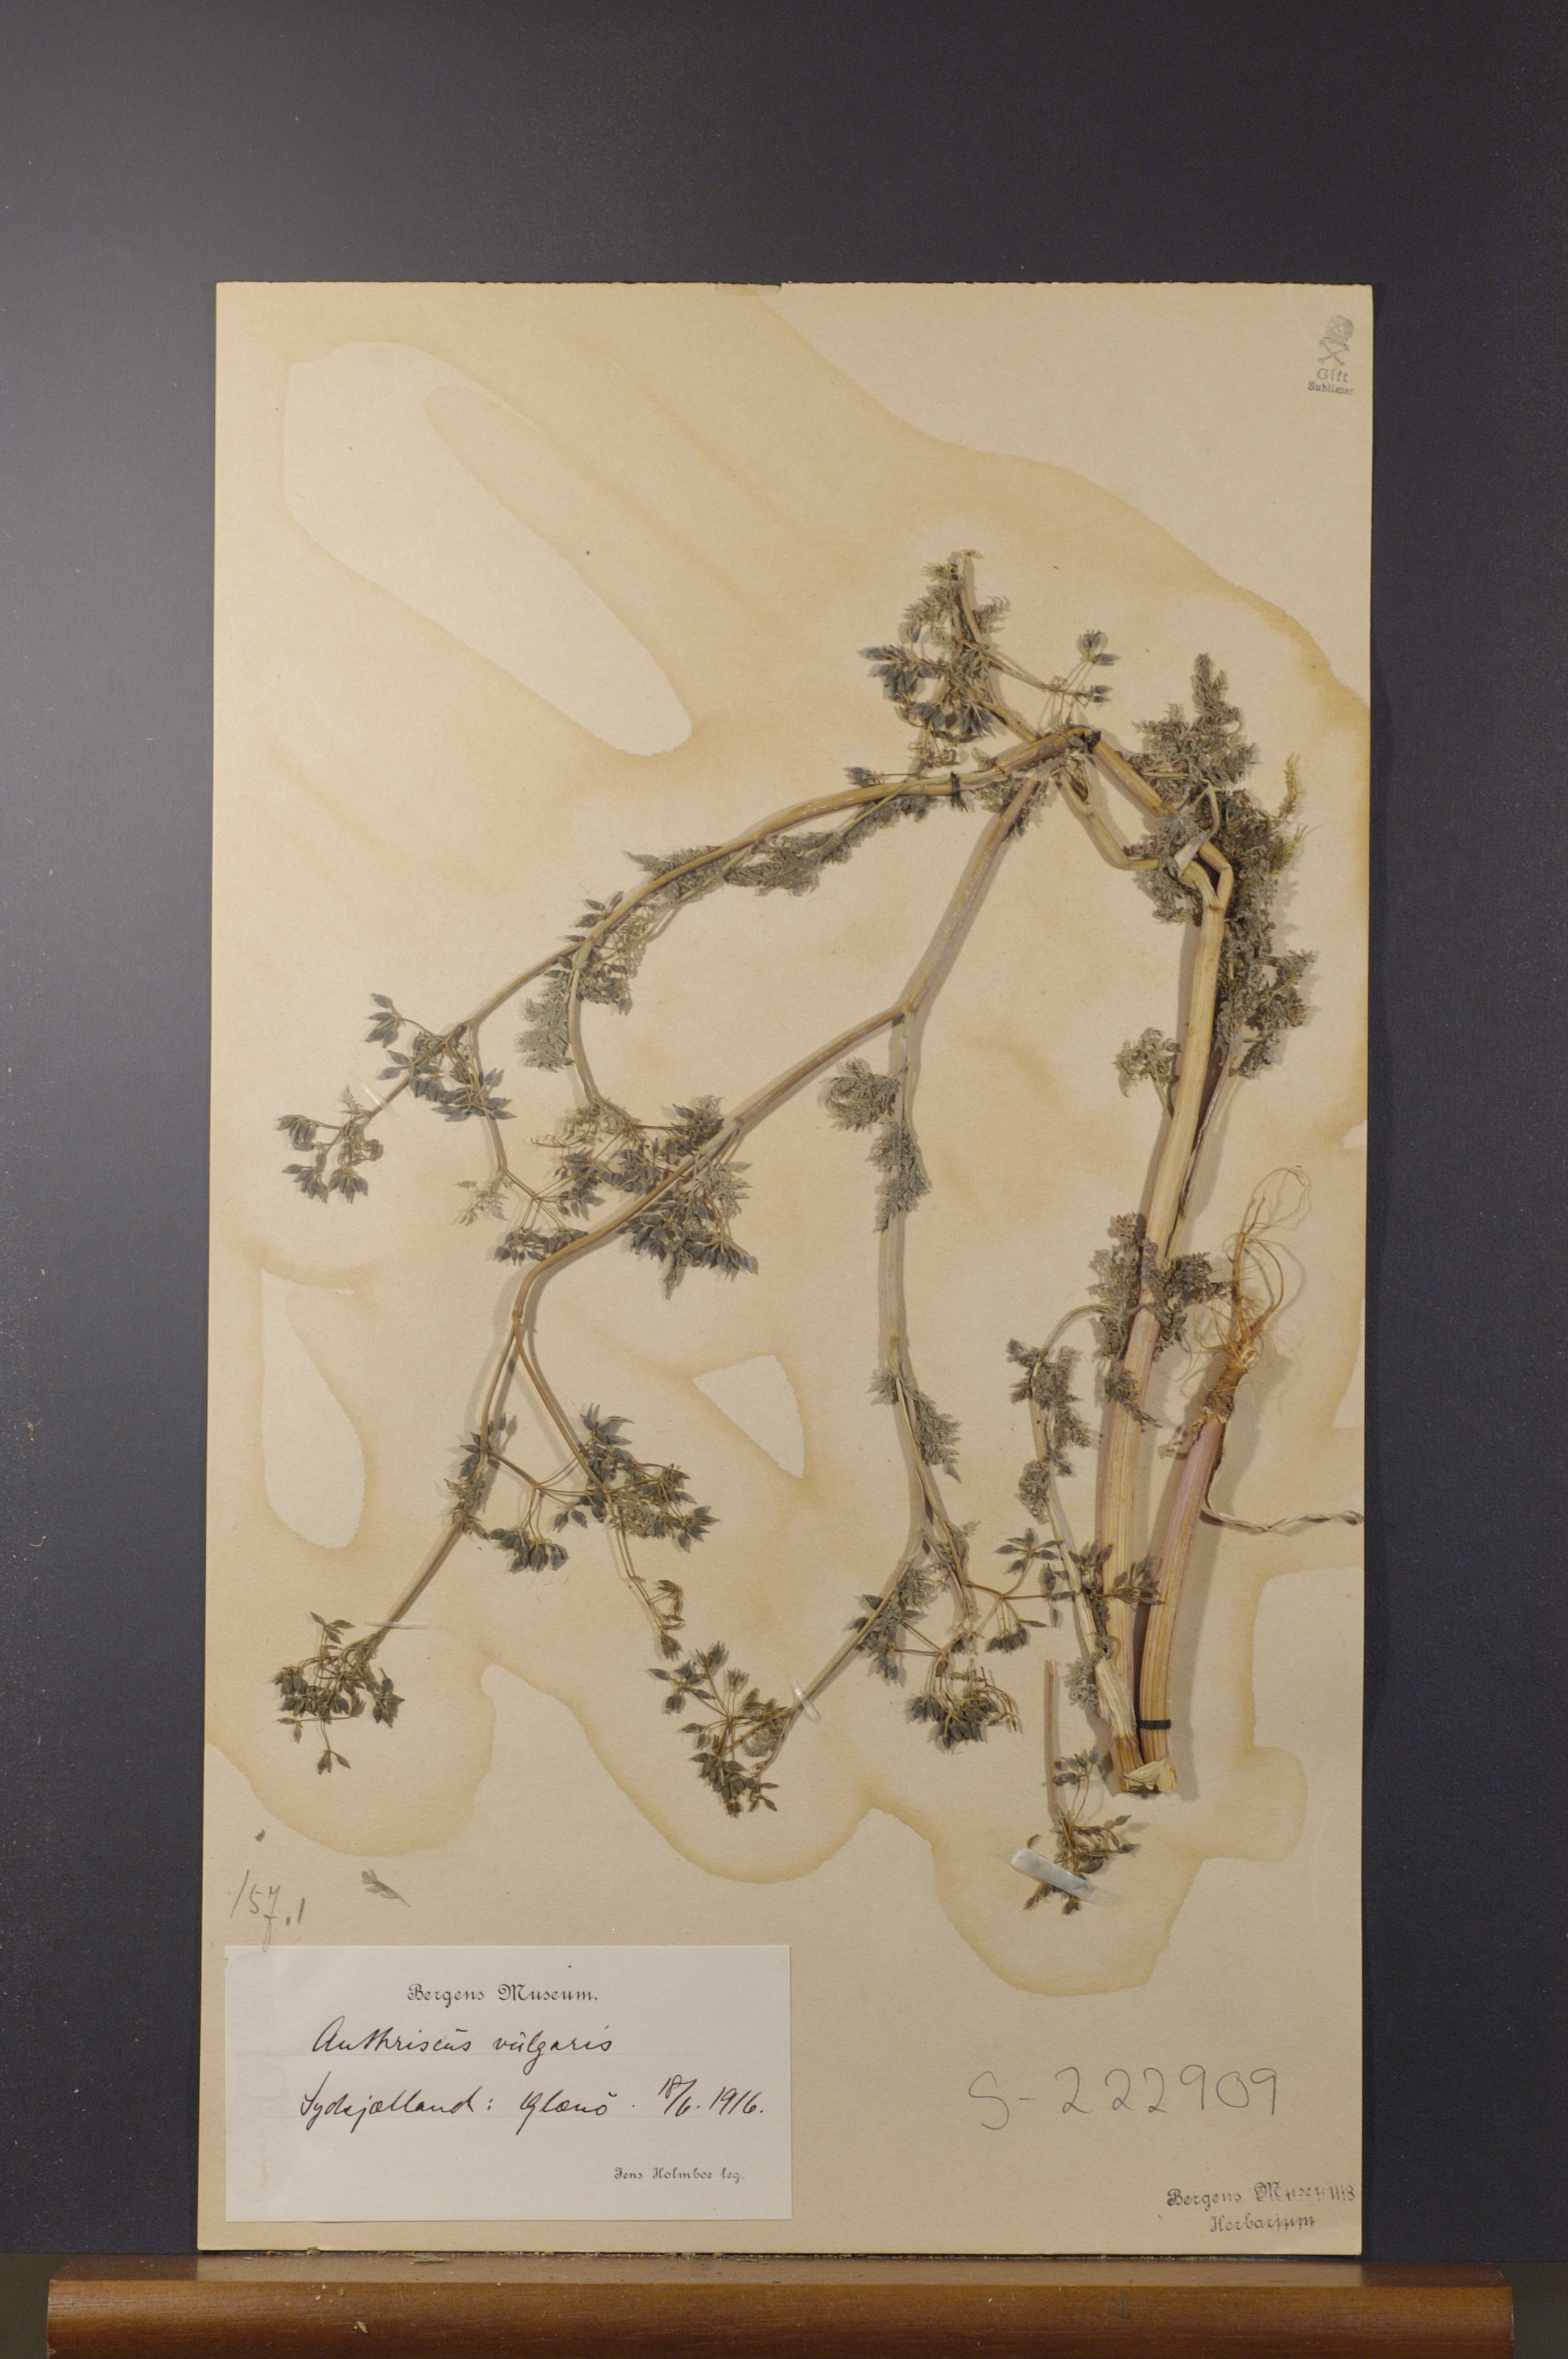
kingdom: Plantae
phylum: Tracheophyta
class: Magnoliopsida
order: Apiales
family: Apiaceae
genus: Anthriscus
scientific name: Anthriscus caucalis
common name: Bur chervil
